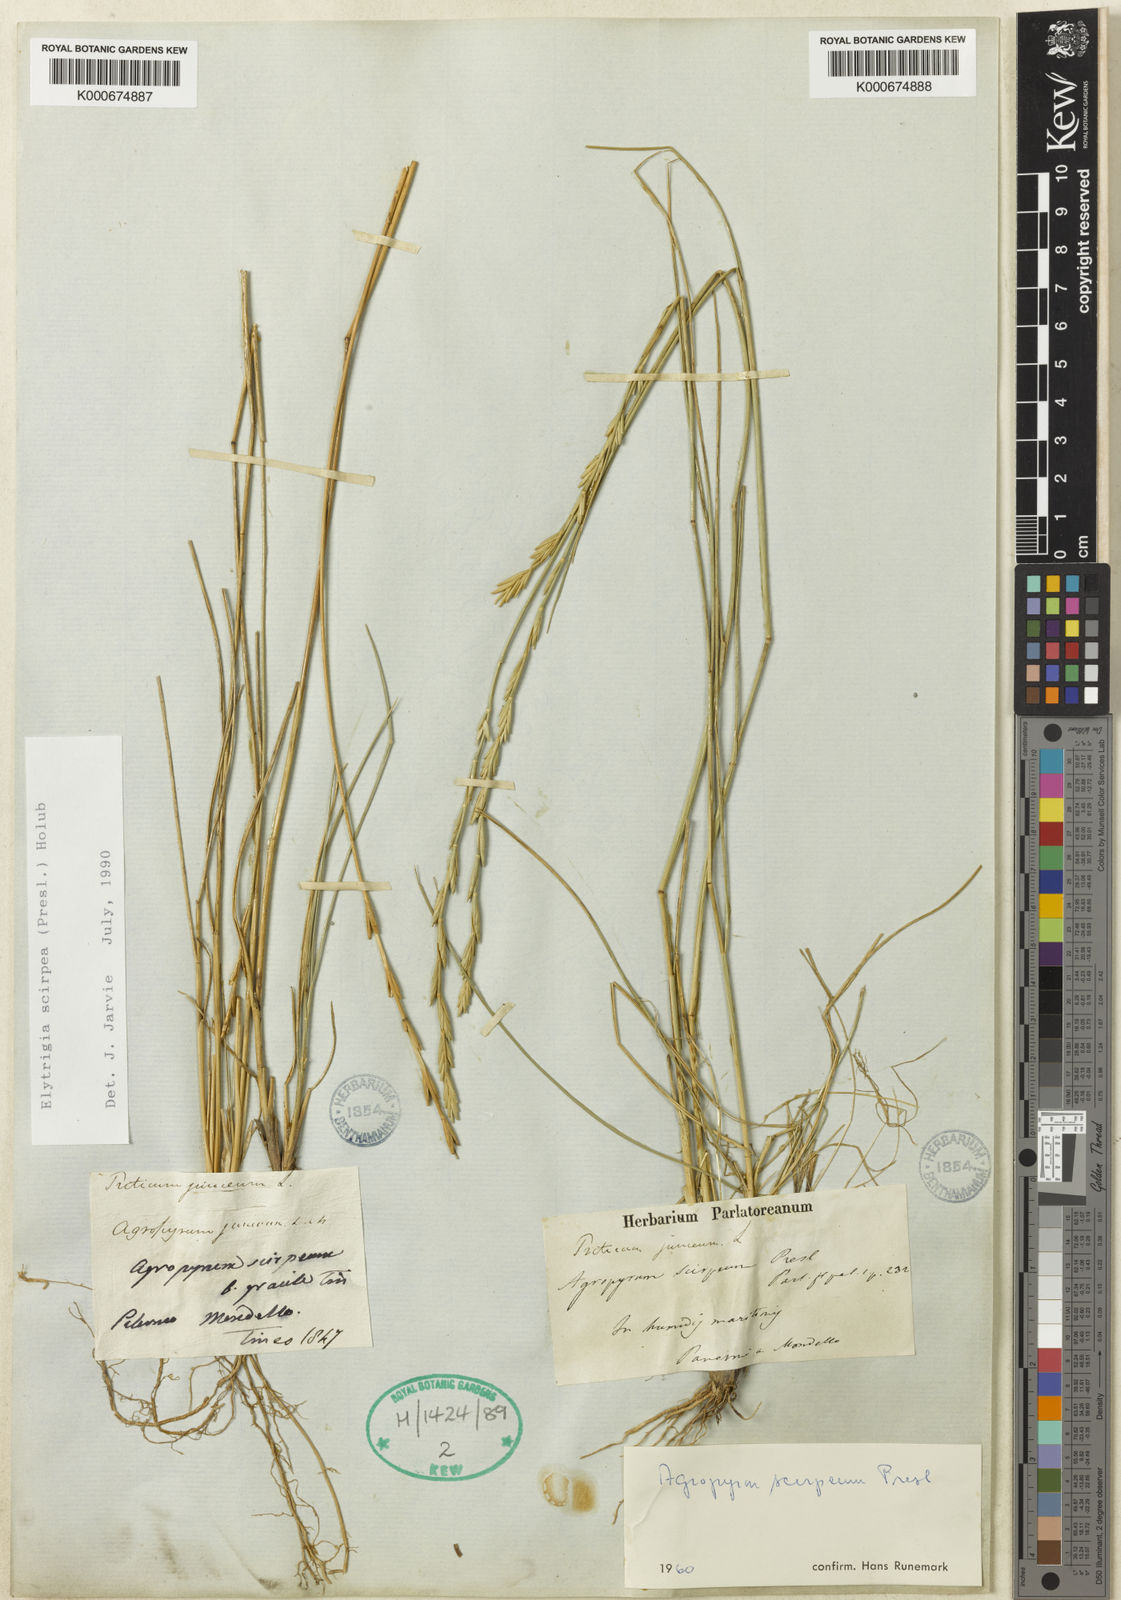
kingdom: Plantae
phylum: Tracheophyta
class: Liliopsida
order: Poales
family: Poaceae
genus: Thinopyrum
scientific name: Thinopyrum flaccidifolium
